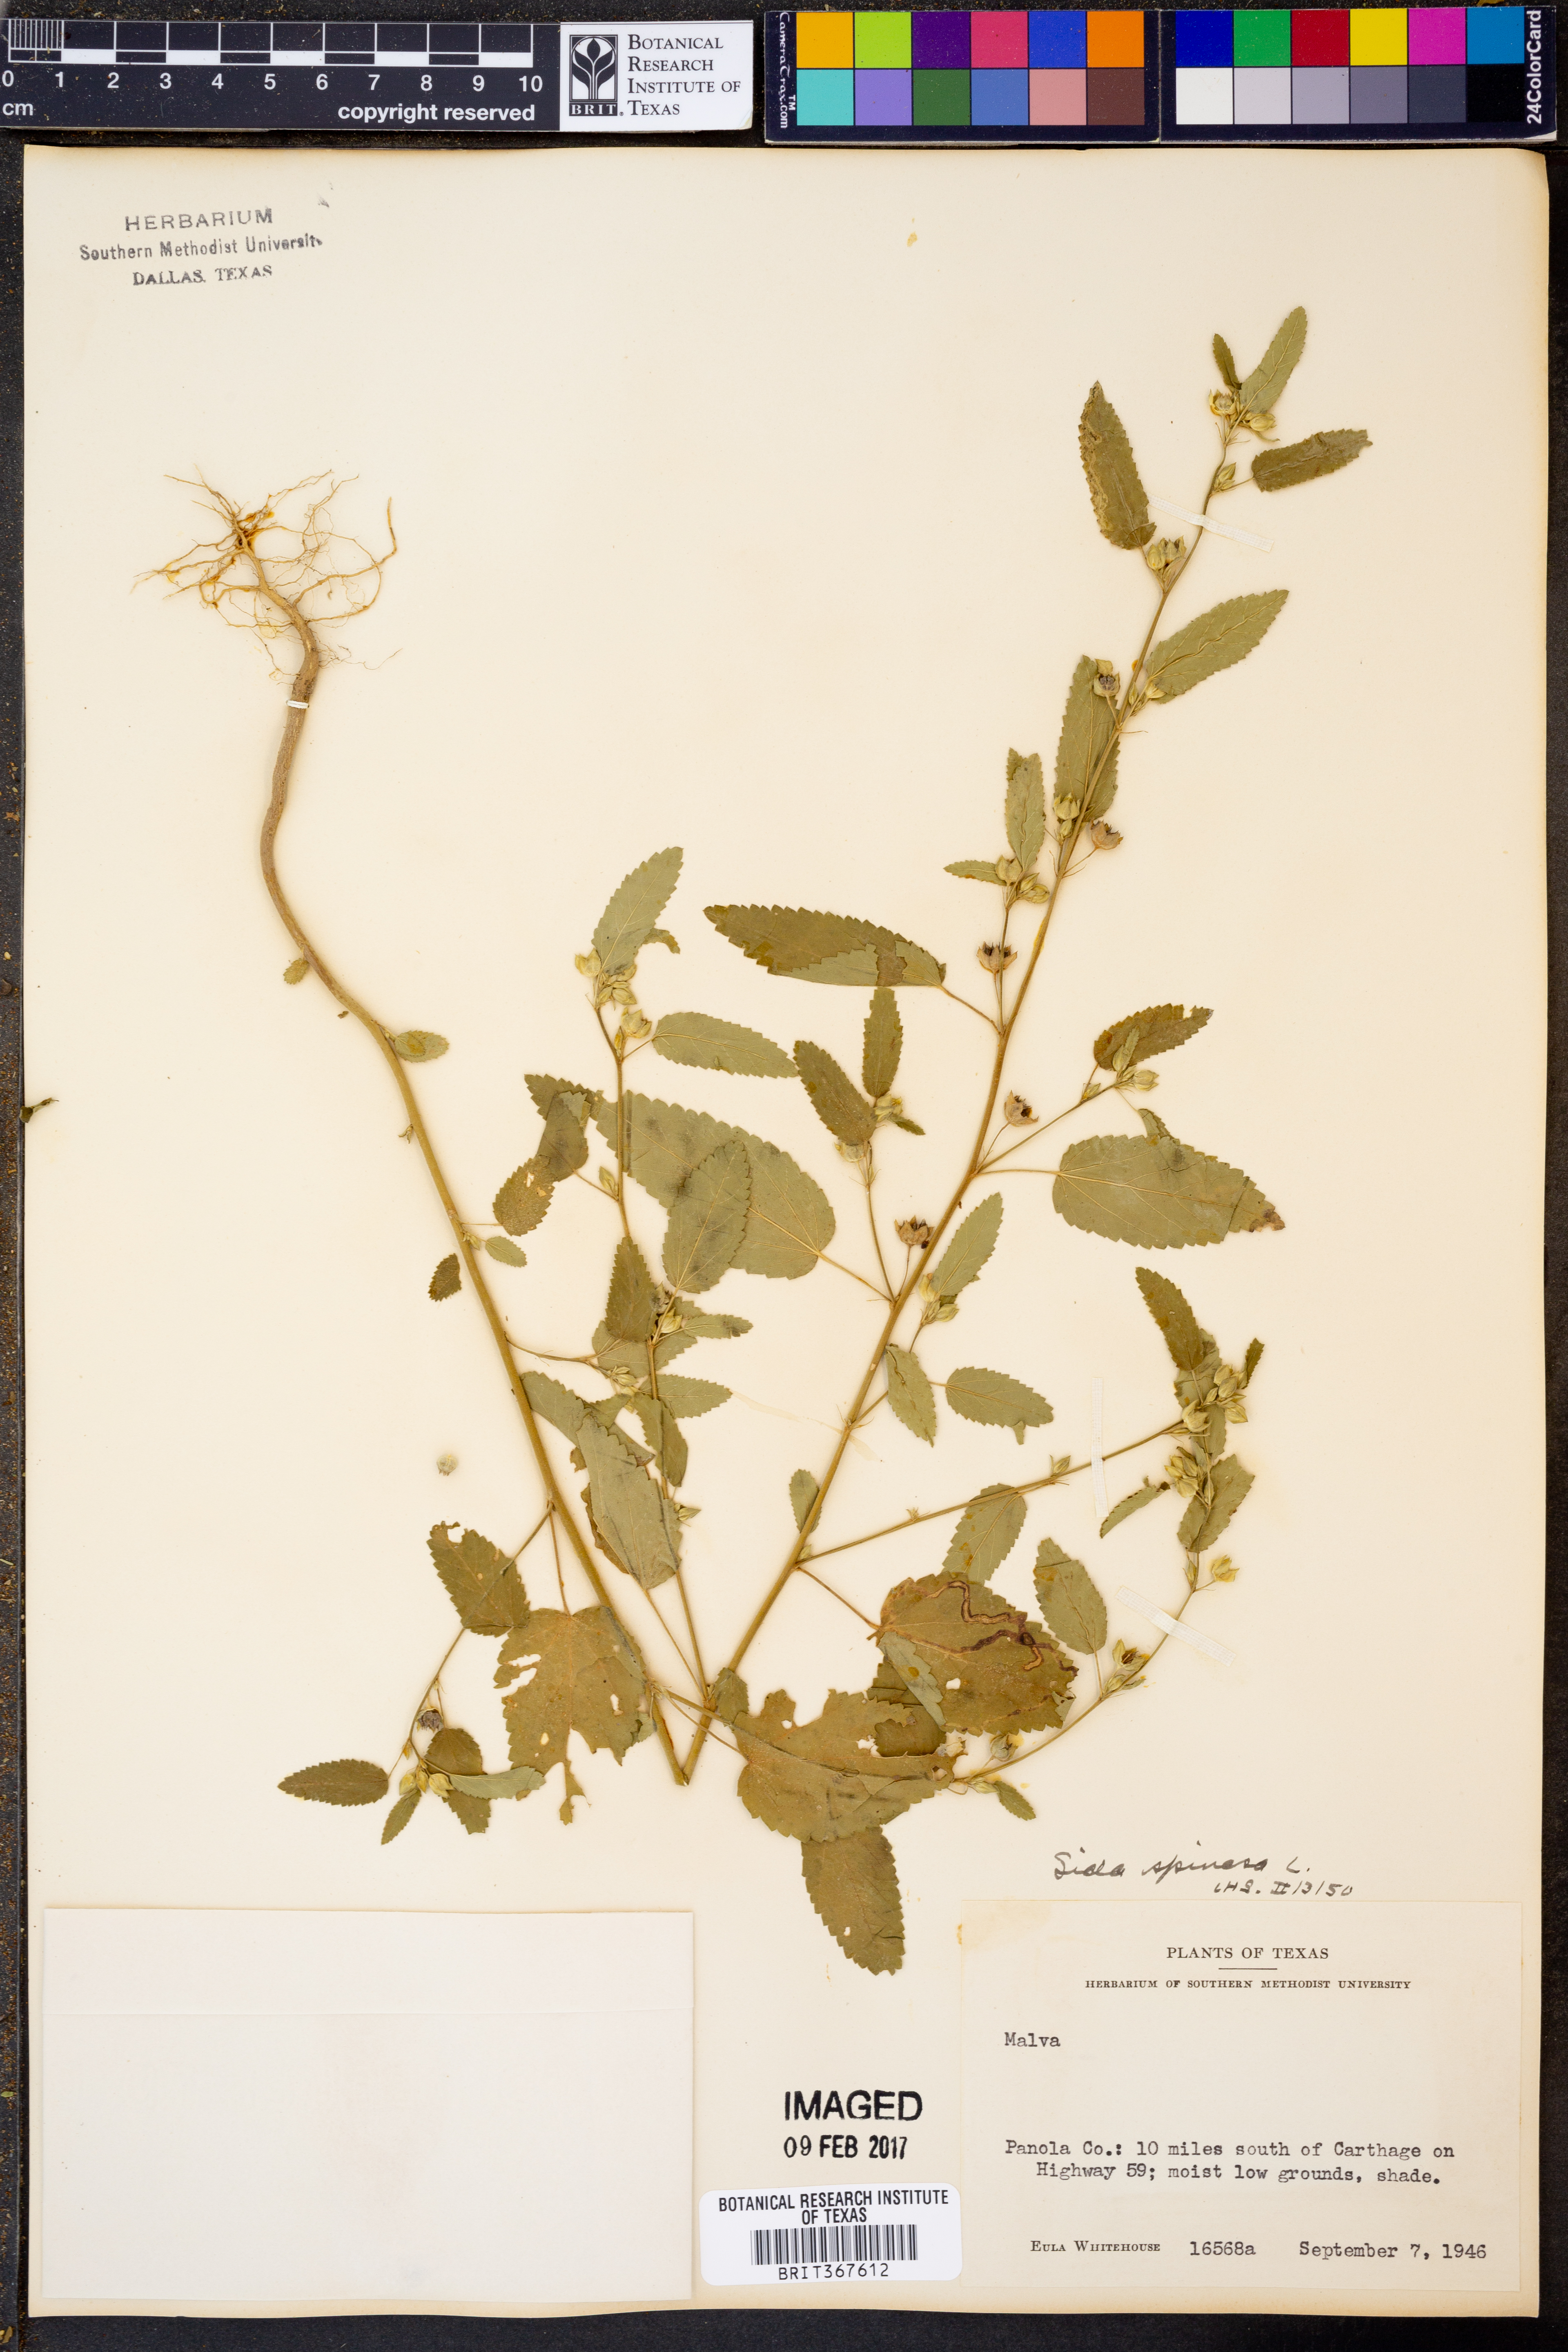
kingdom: Plantae
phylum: Tracheophyta
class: Magnoliopsida
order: Malvales
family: Malvaceae
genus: Sida
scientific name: Sida spinosa
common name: Prickly fanpetals
